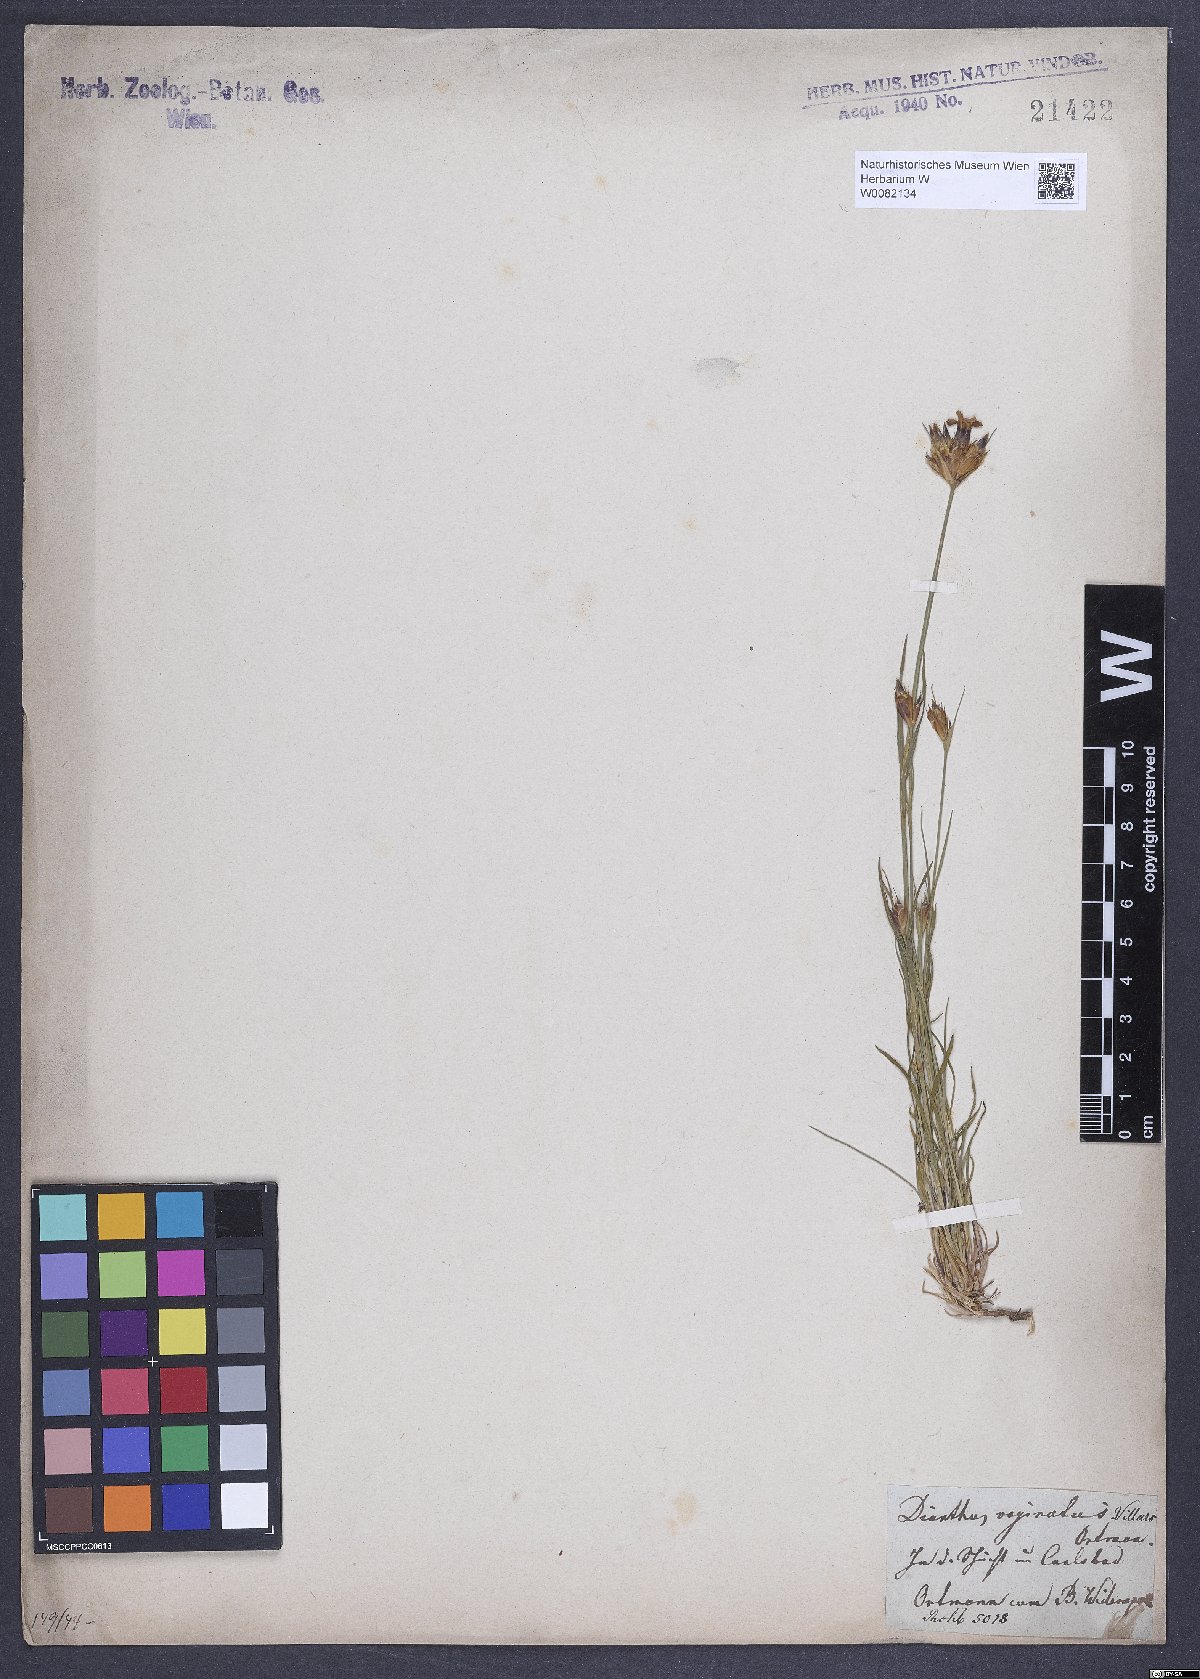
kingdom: Plantae
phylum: Tracheophyta
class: Magnoliopsida
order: Caryophyllales
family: Caryophyllaceae
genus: Dianthus
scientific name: Dianthus carthusianorum
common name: Carthusian pink
